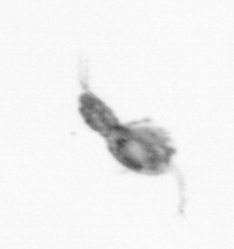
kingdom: Animalia
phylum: Arthropoda
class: Copepoda
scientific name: Copepoda
